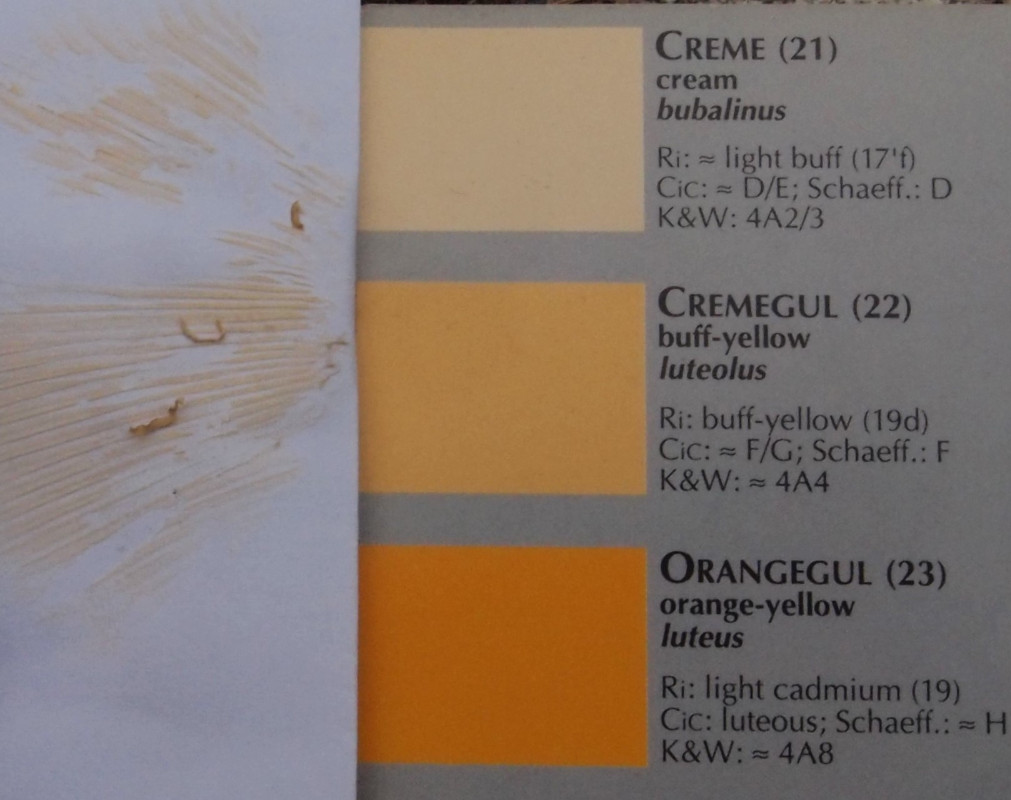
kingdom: Fungi
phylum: Basidiomycota
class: Agaricomycetes
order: Russulales
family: Russulaceae
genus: Russula
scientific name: Russula
